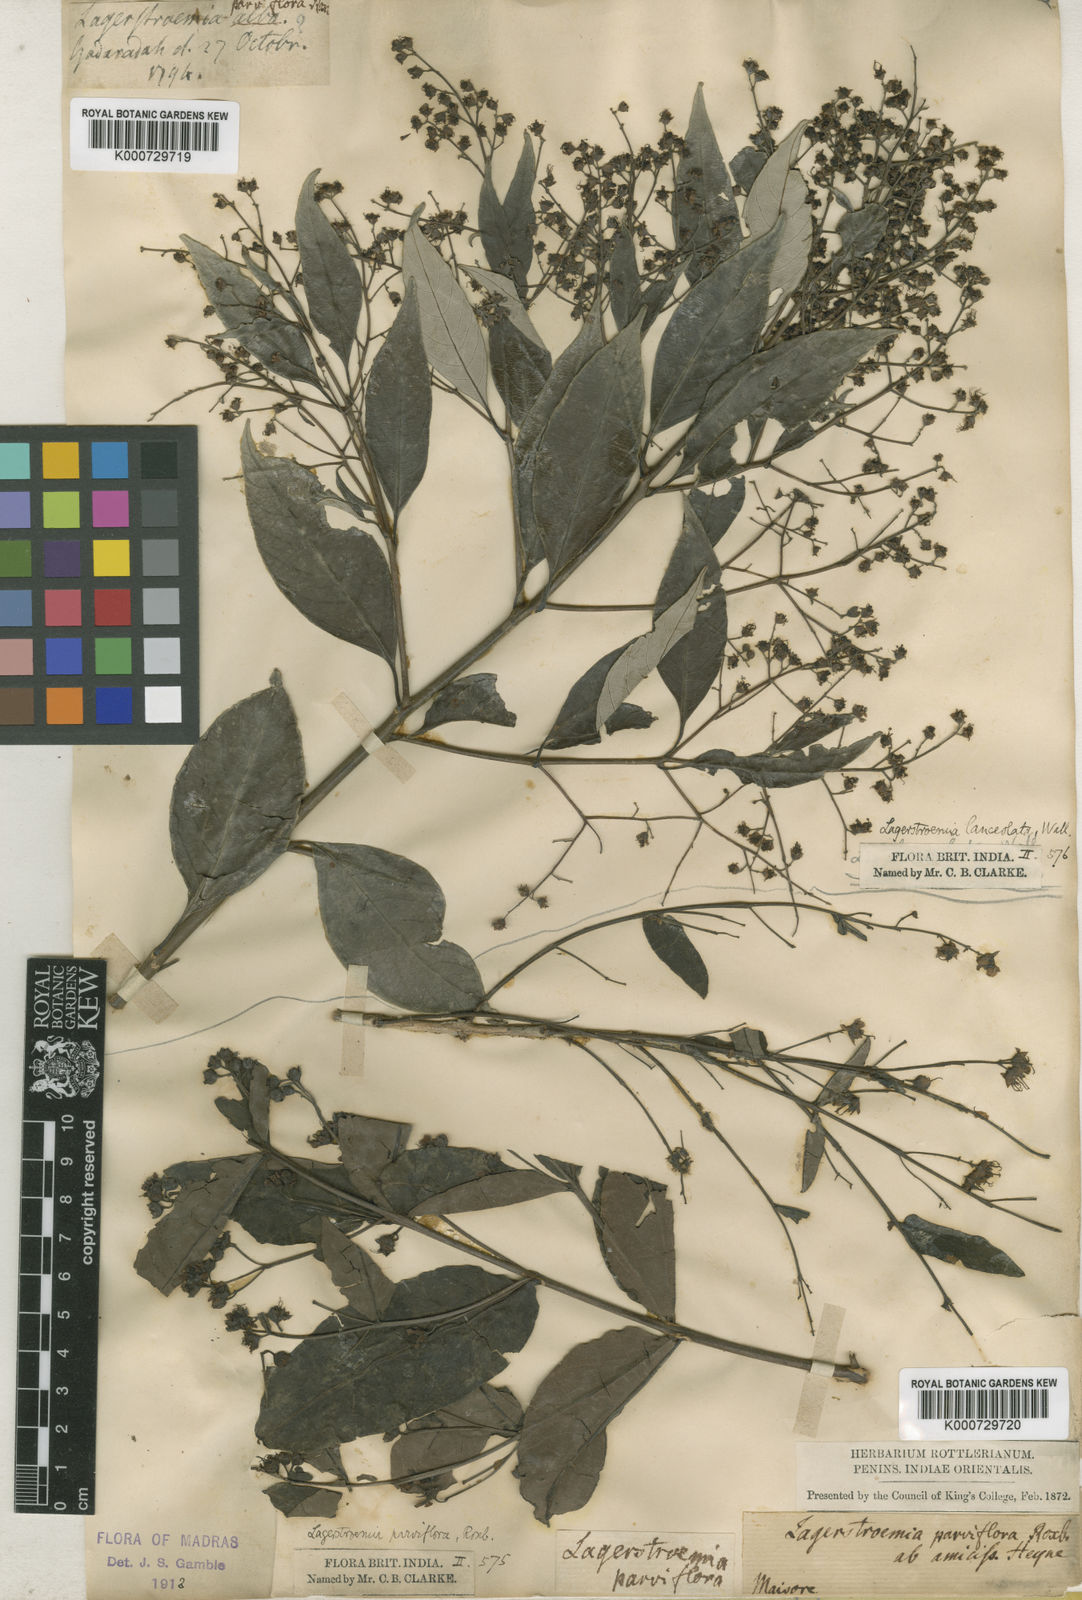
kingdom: Plantae
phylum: Tracheophyta
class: Magnoliopsida
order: Myrtales
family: Lythraceae
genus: Lagerstroemia
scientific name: Lagerstroemia parviflora
